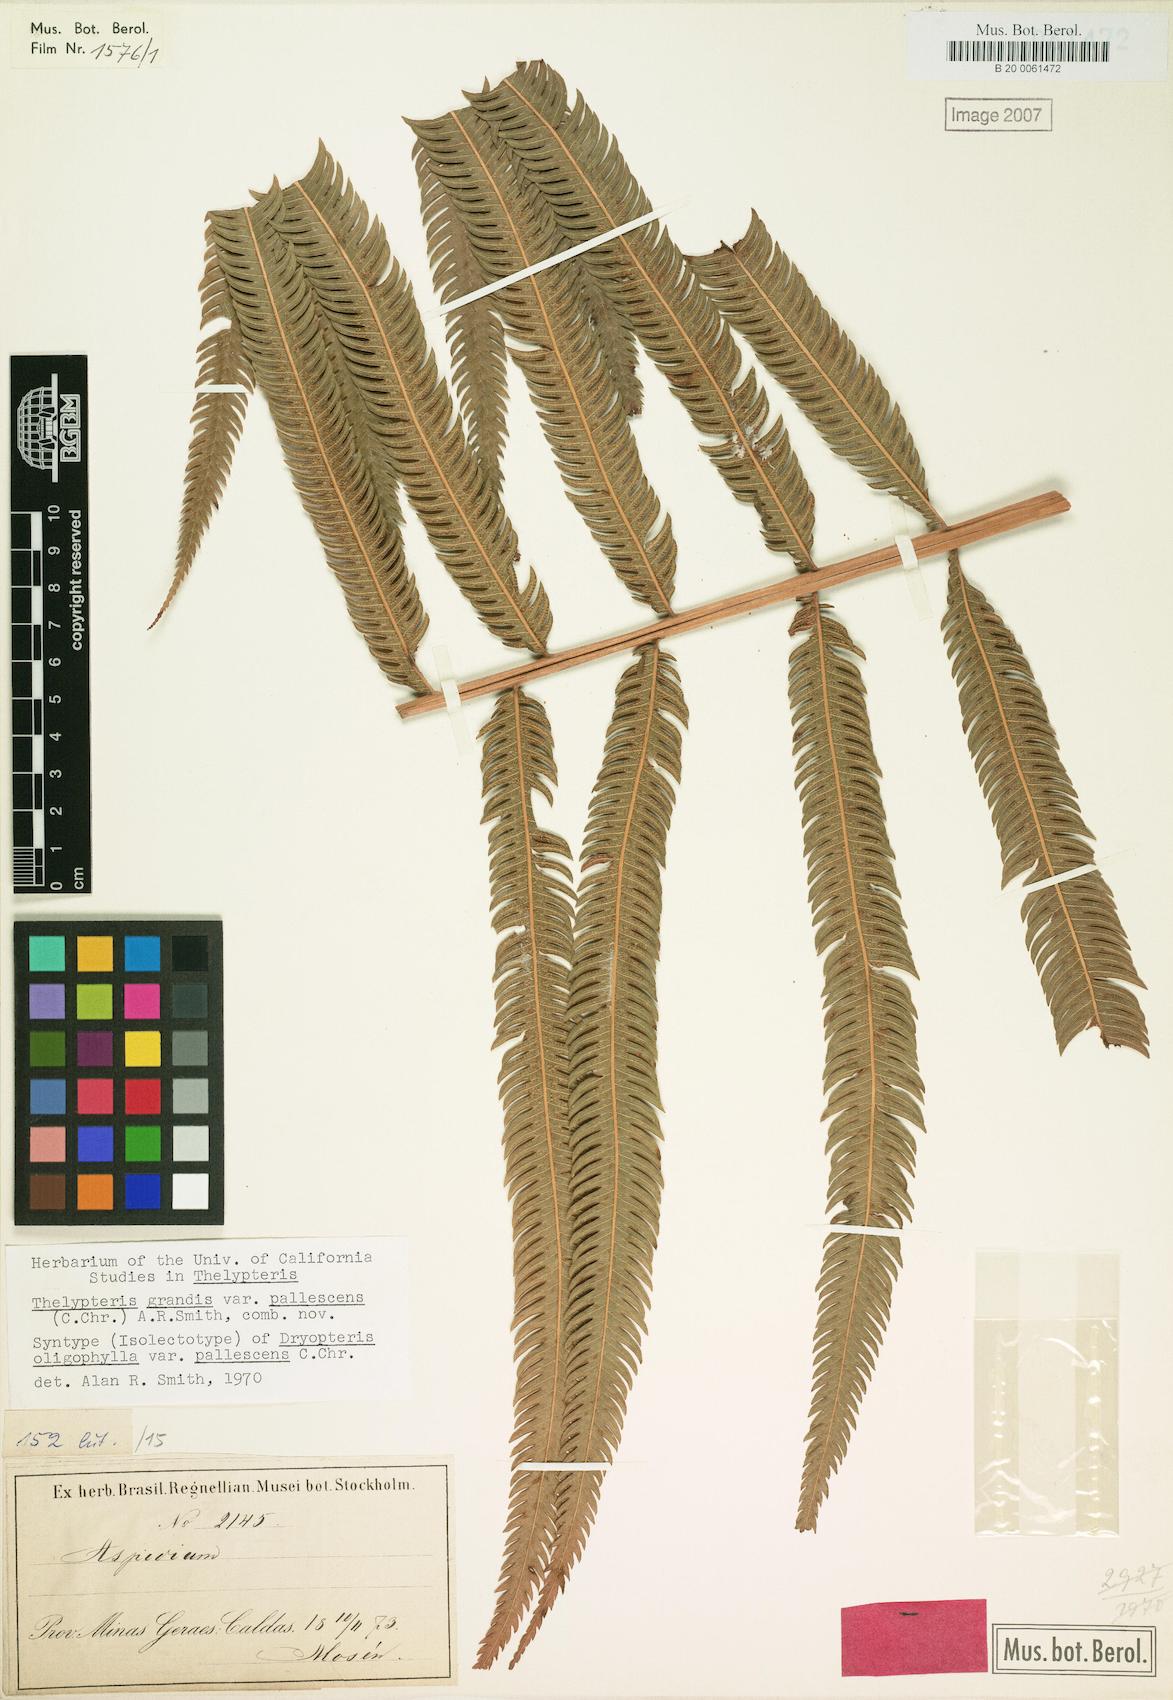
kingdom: Plantae
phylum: Tracheophyta
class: Polypodiopsida
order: Polypodiales
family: Thelypteridaceae
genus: Pelazoneuron
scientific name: Pelazoneuron abruptum
